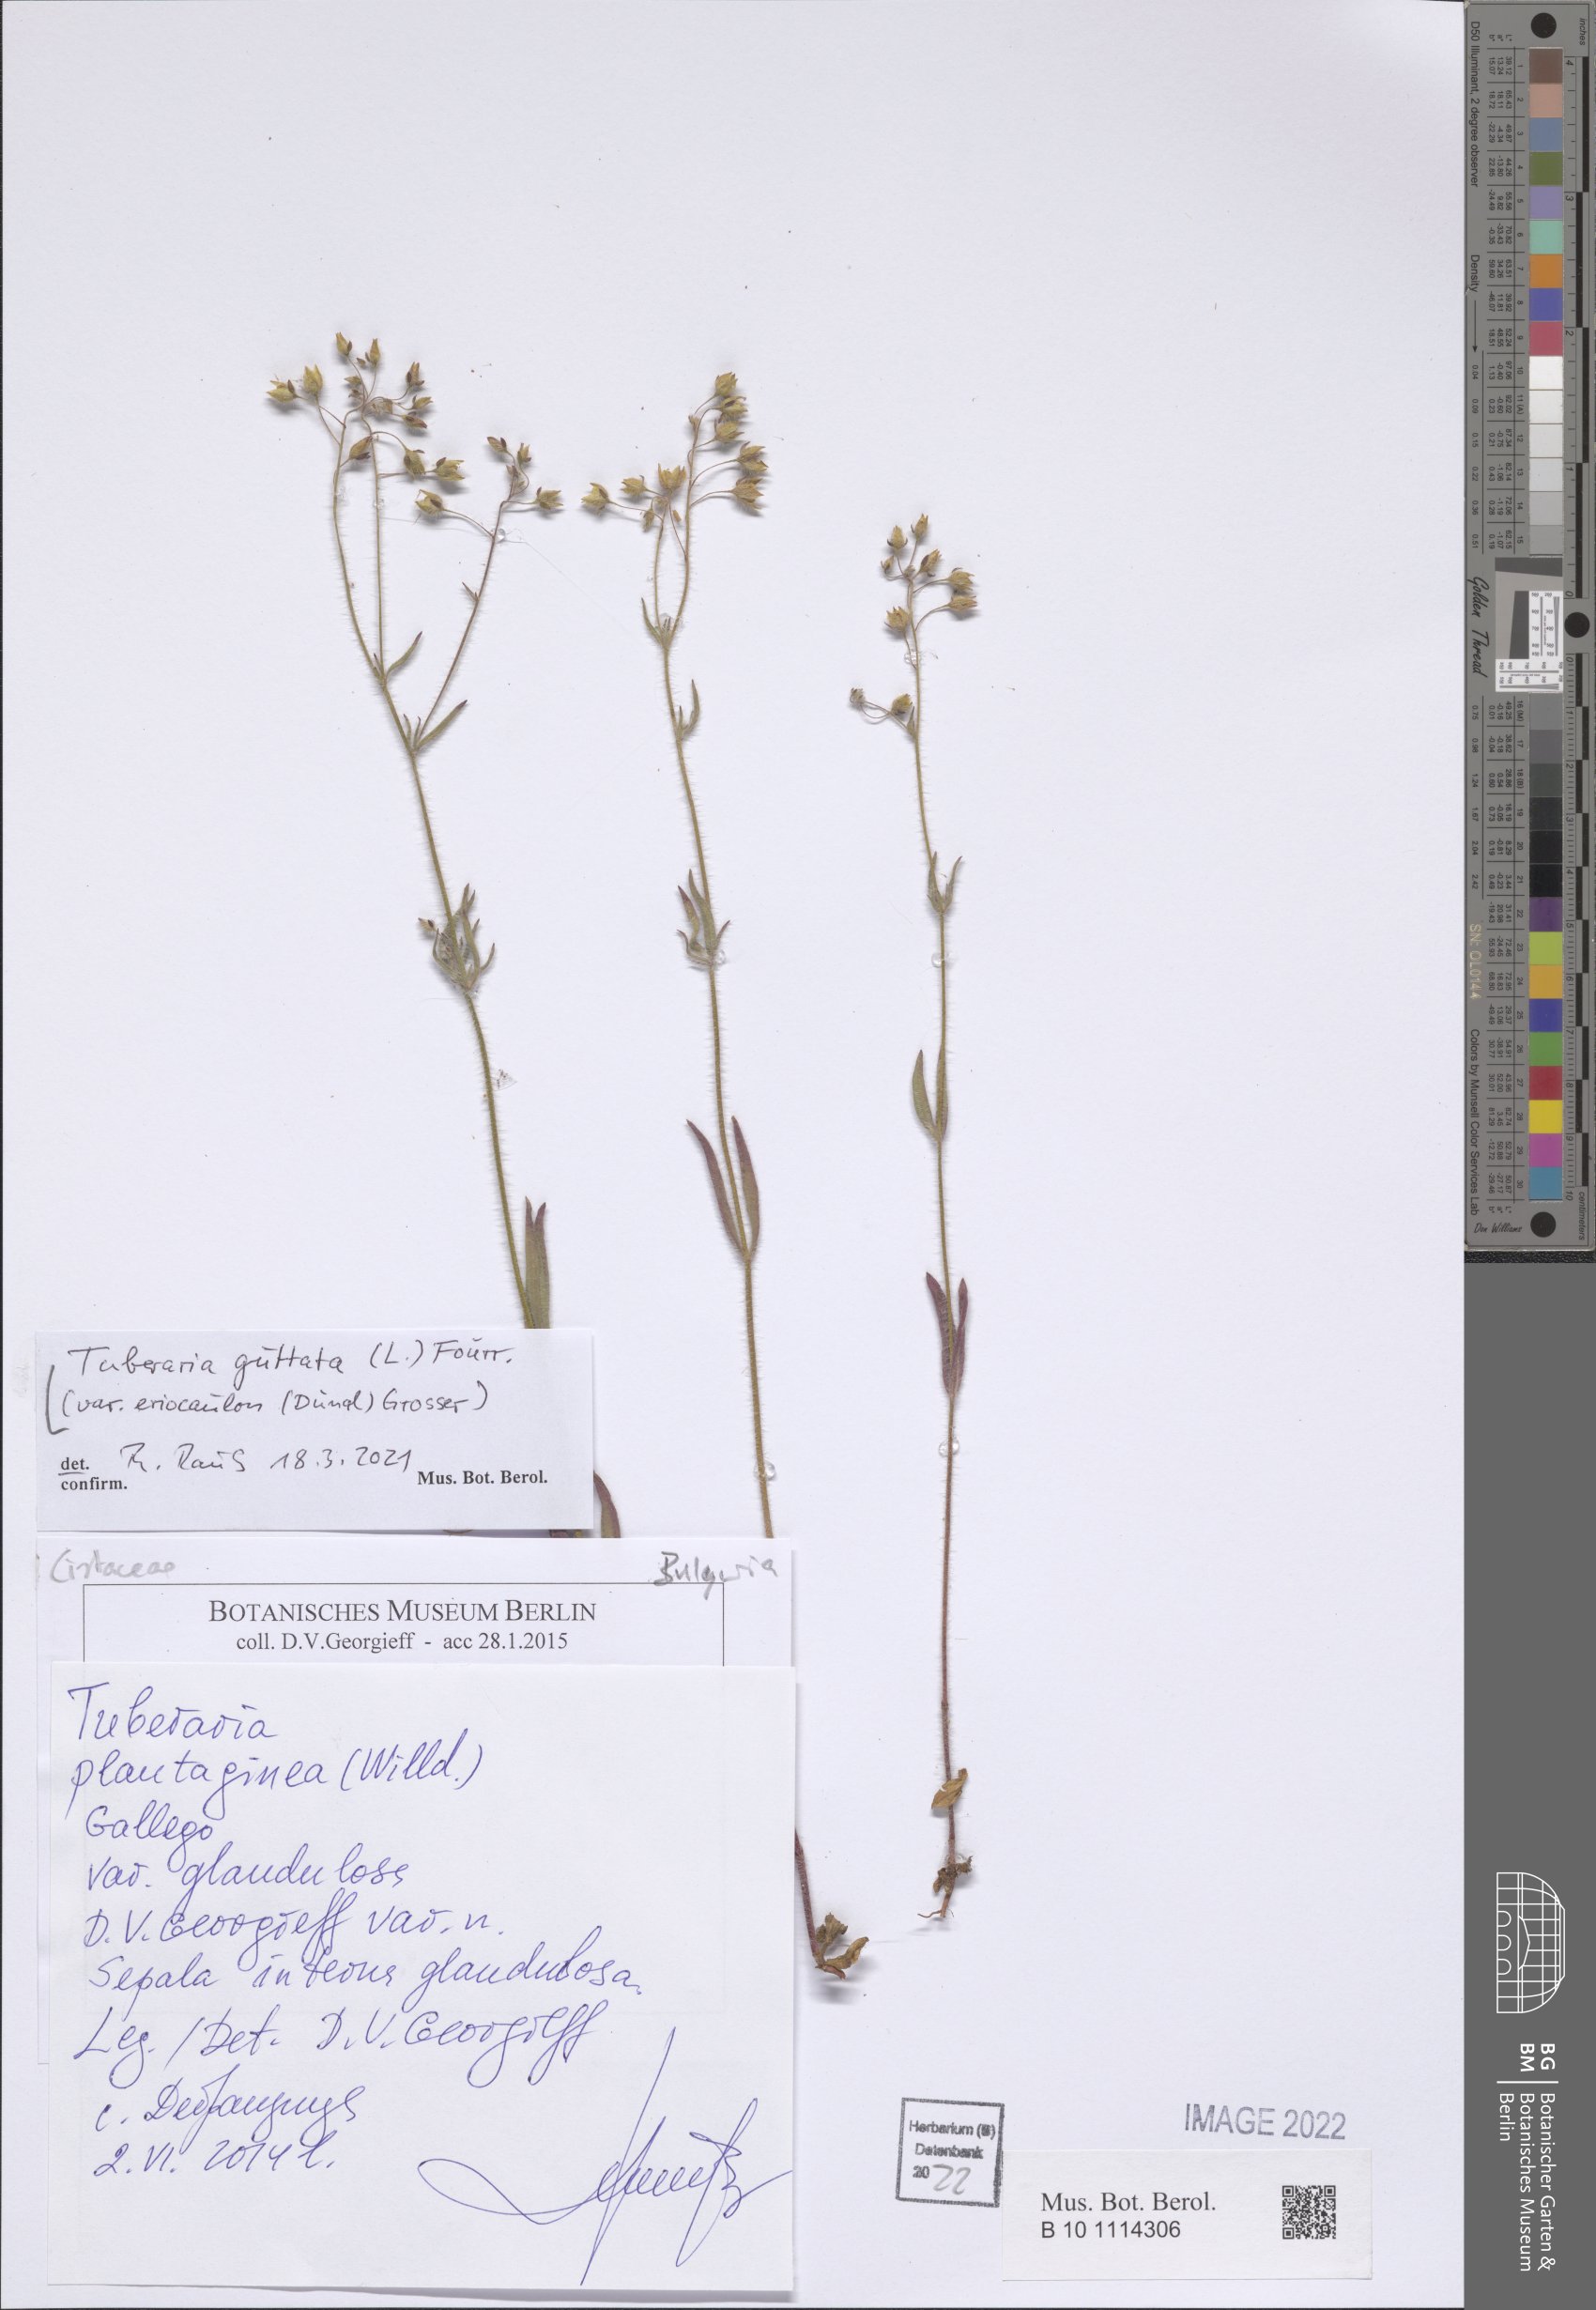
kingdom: Plantae
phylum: Tracheophyta
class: Magnoliopsida
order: Malvales
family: Cistaceae
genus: Tuberaria
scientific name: Tuberaria guttata
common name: Spotted rock-rose
